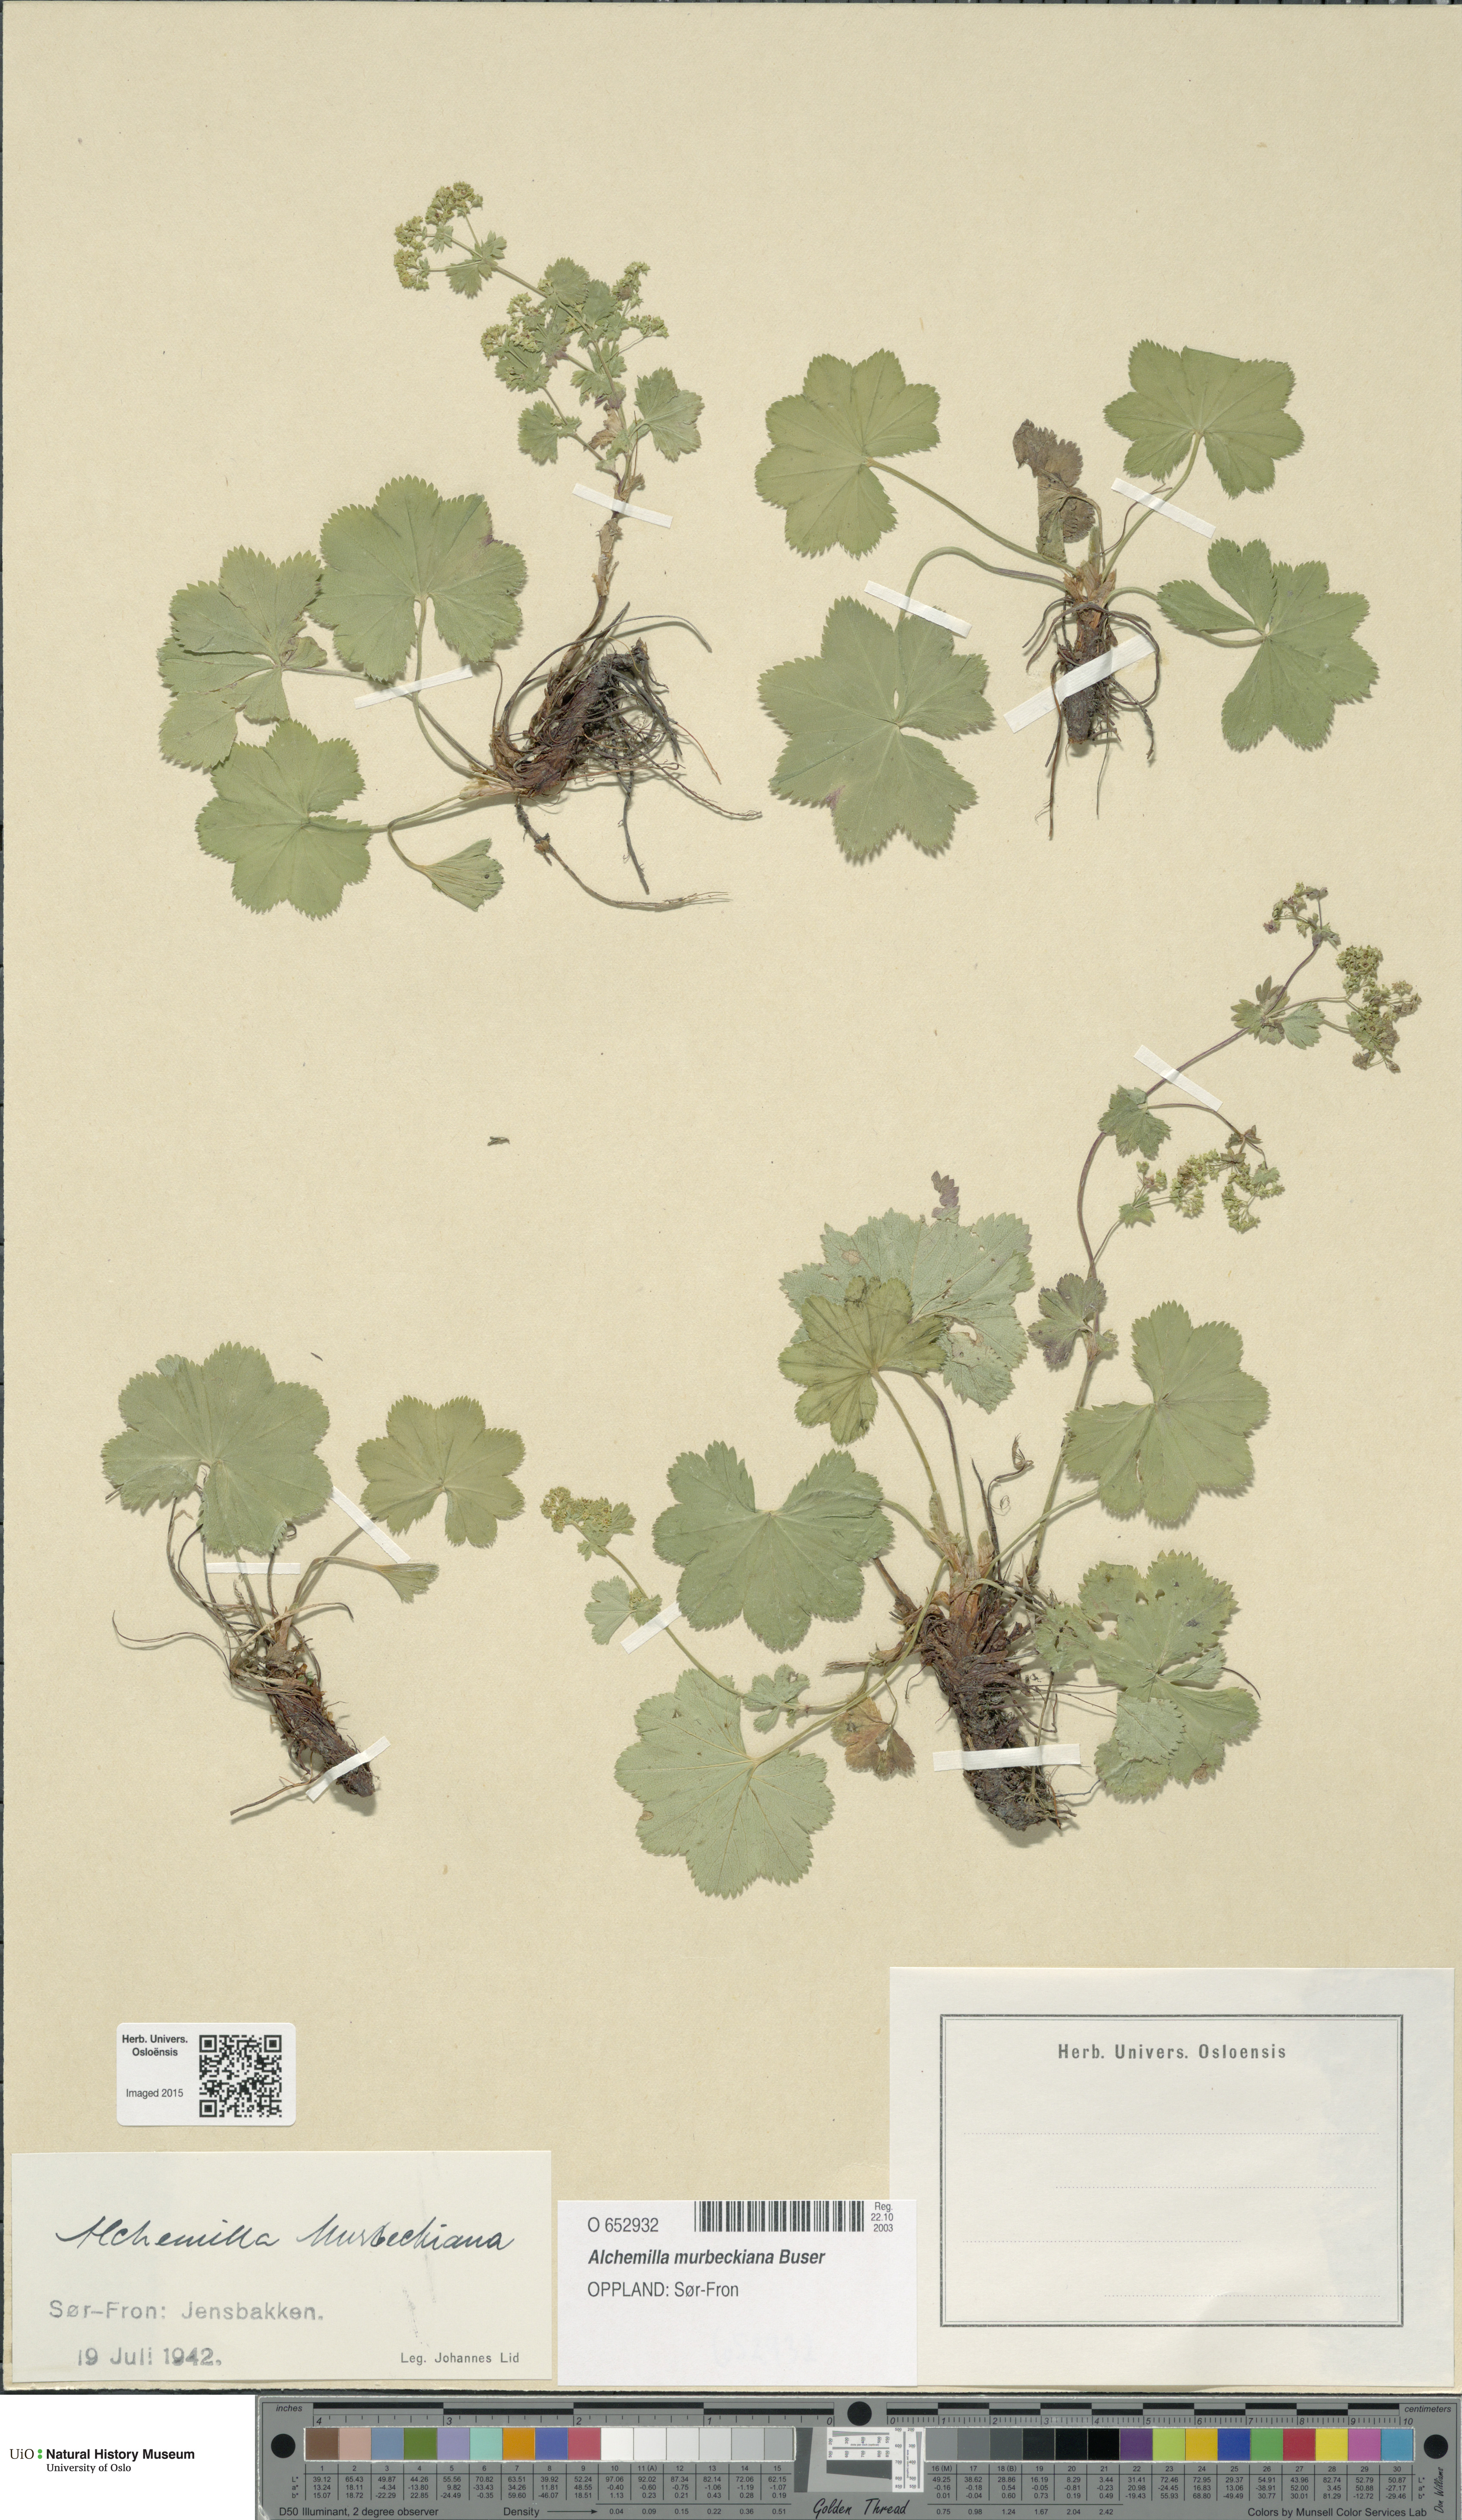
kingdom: Plantae
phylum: Tracheophyta
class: Magnoliopsida
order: Rosales
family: Rosaceae
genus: Alchemilla
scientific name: Alchemilla murbeckiana
